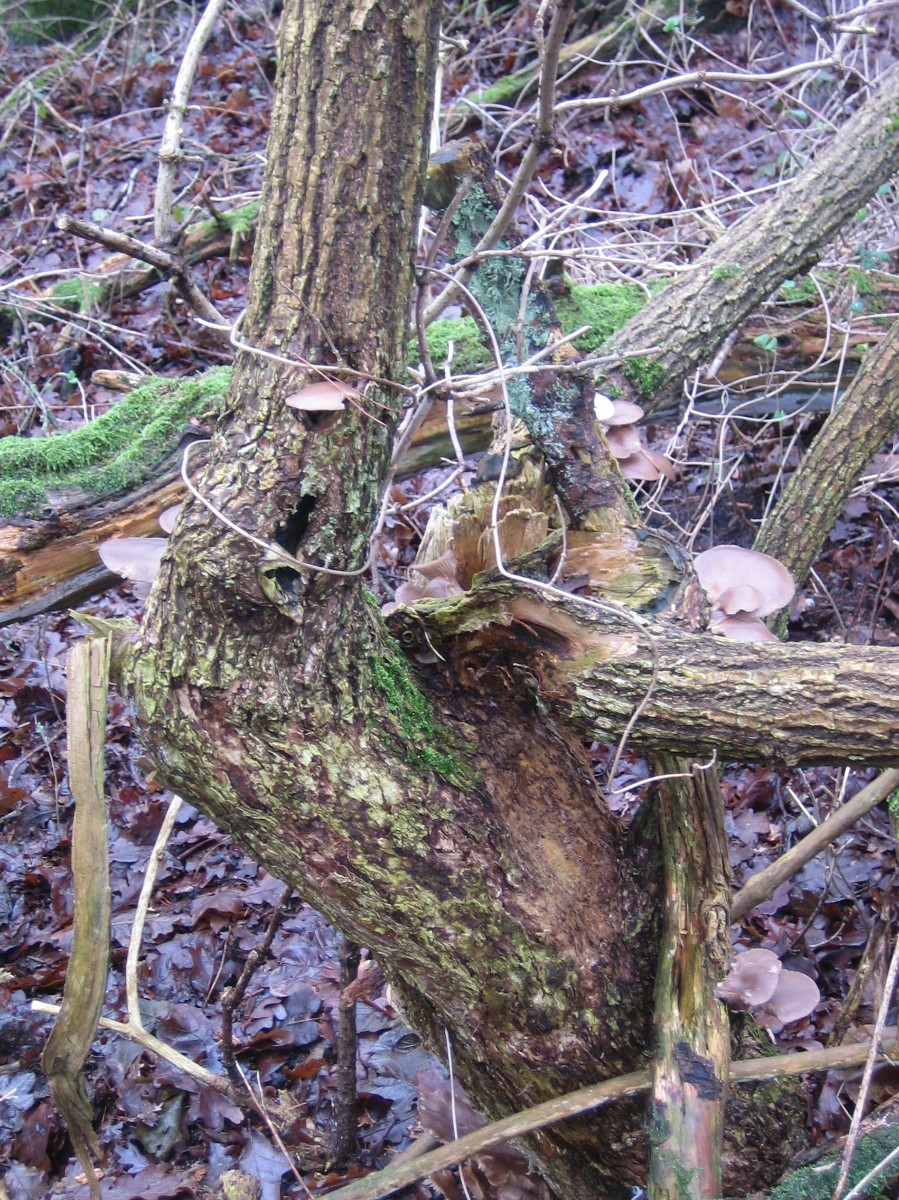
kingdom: Fungi
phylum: Basidiomycota
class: Agaricomycetes
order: Agaricales
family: Pleurotaceae
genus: Pleurotus
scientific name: Pleurotus ostreatus
